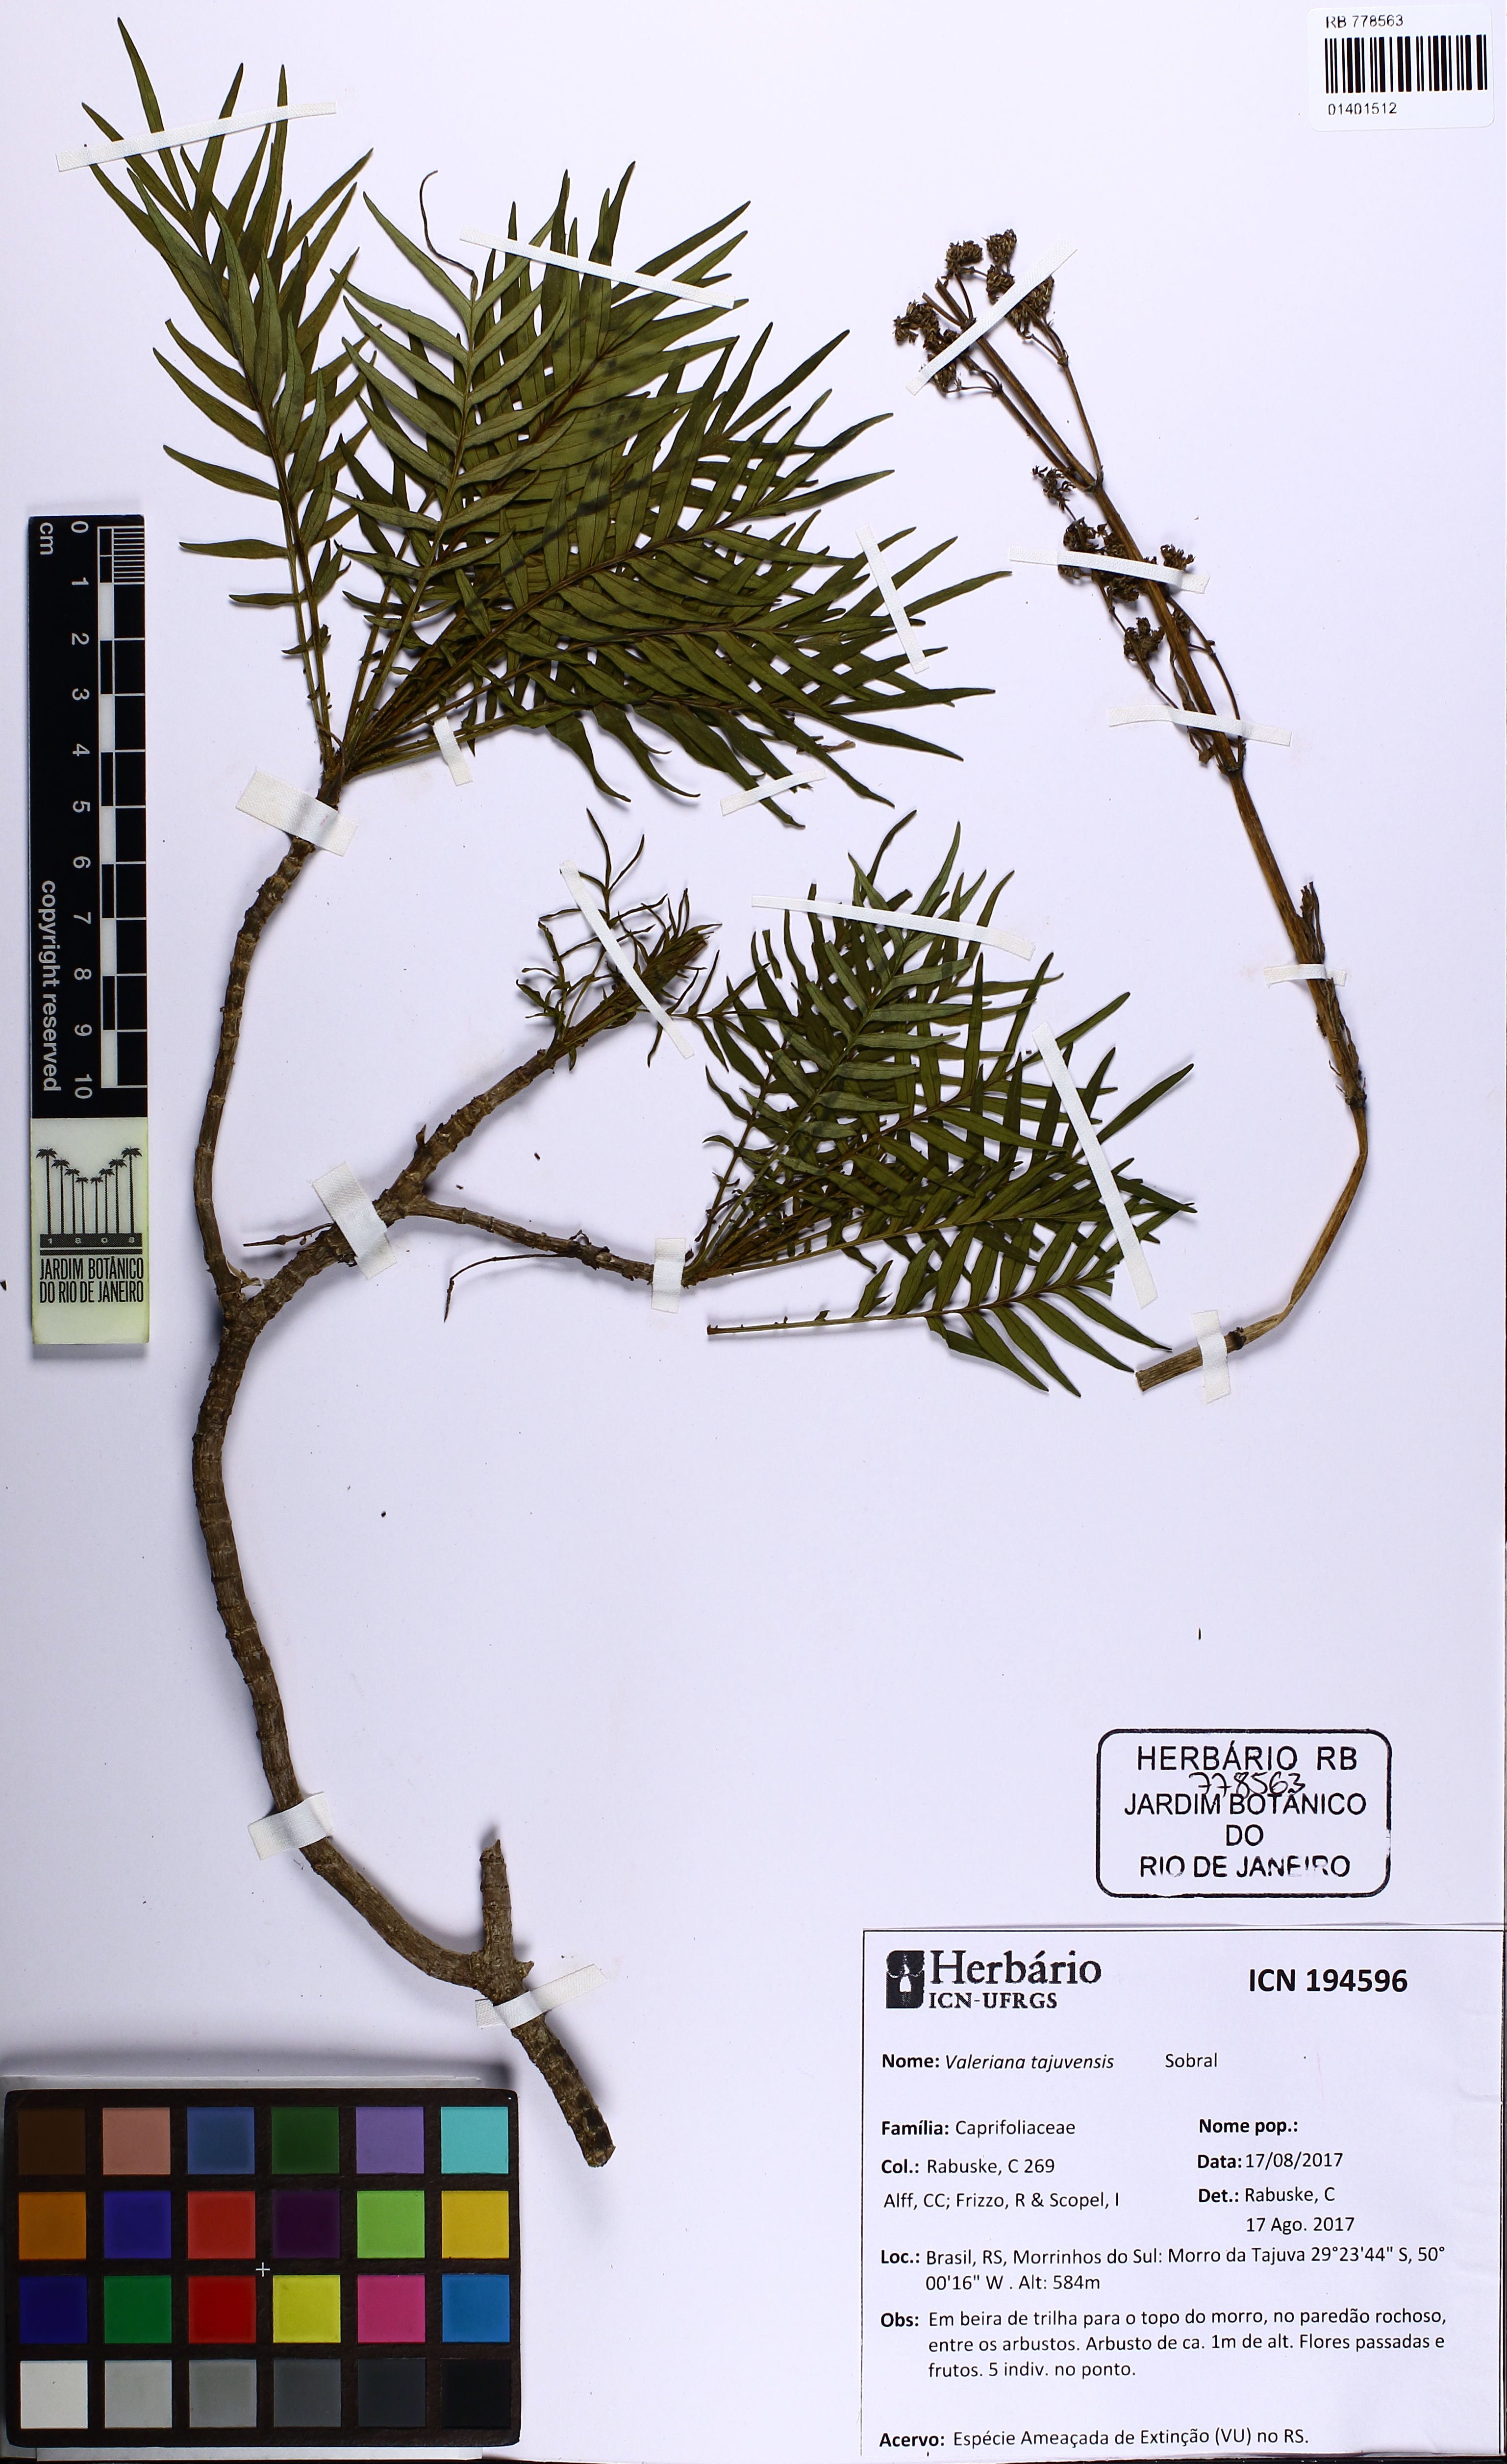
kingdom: Plantae
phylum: Tracheophyta
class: Magnoliopsida
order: Dipsacales
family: Caprifoliaceae
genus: Valeriana
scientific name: Valeriana tajuvensis
